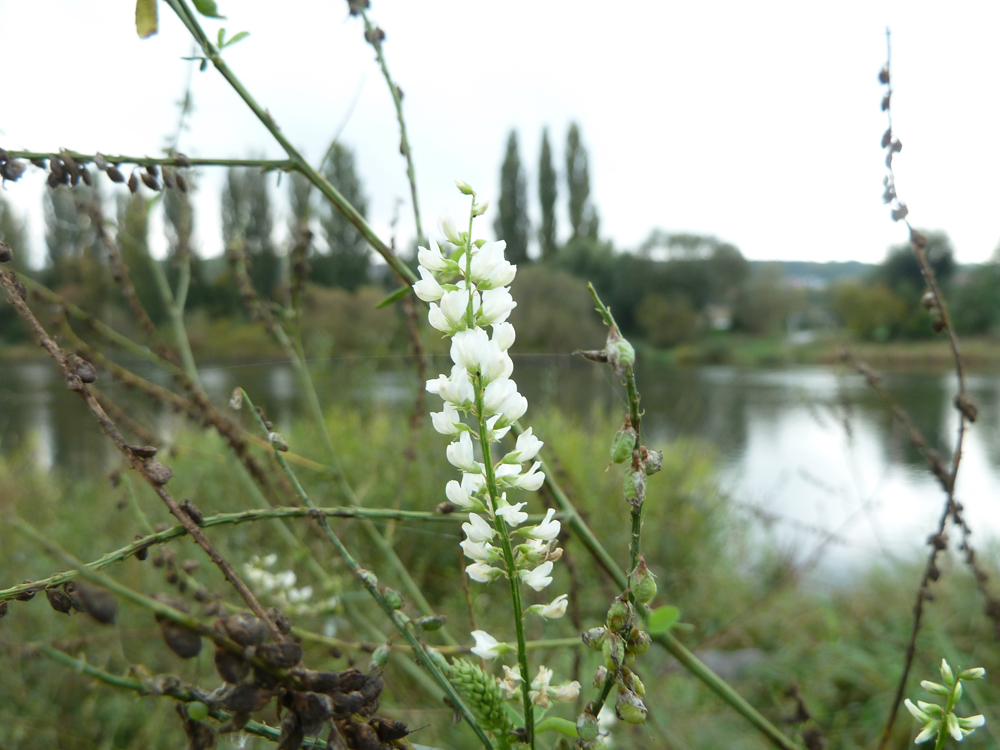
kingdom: Plantae
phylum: Tracheophyta
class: Magnoliopsida
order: Fabales
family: Fabaceae
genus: Melilotus
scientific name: Melilotus albus
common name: White melilot
